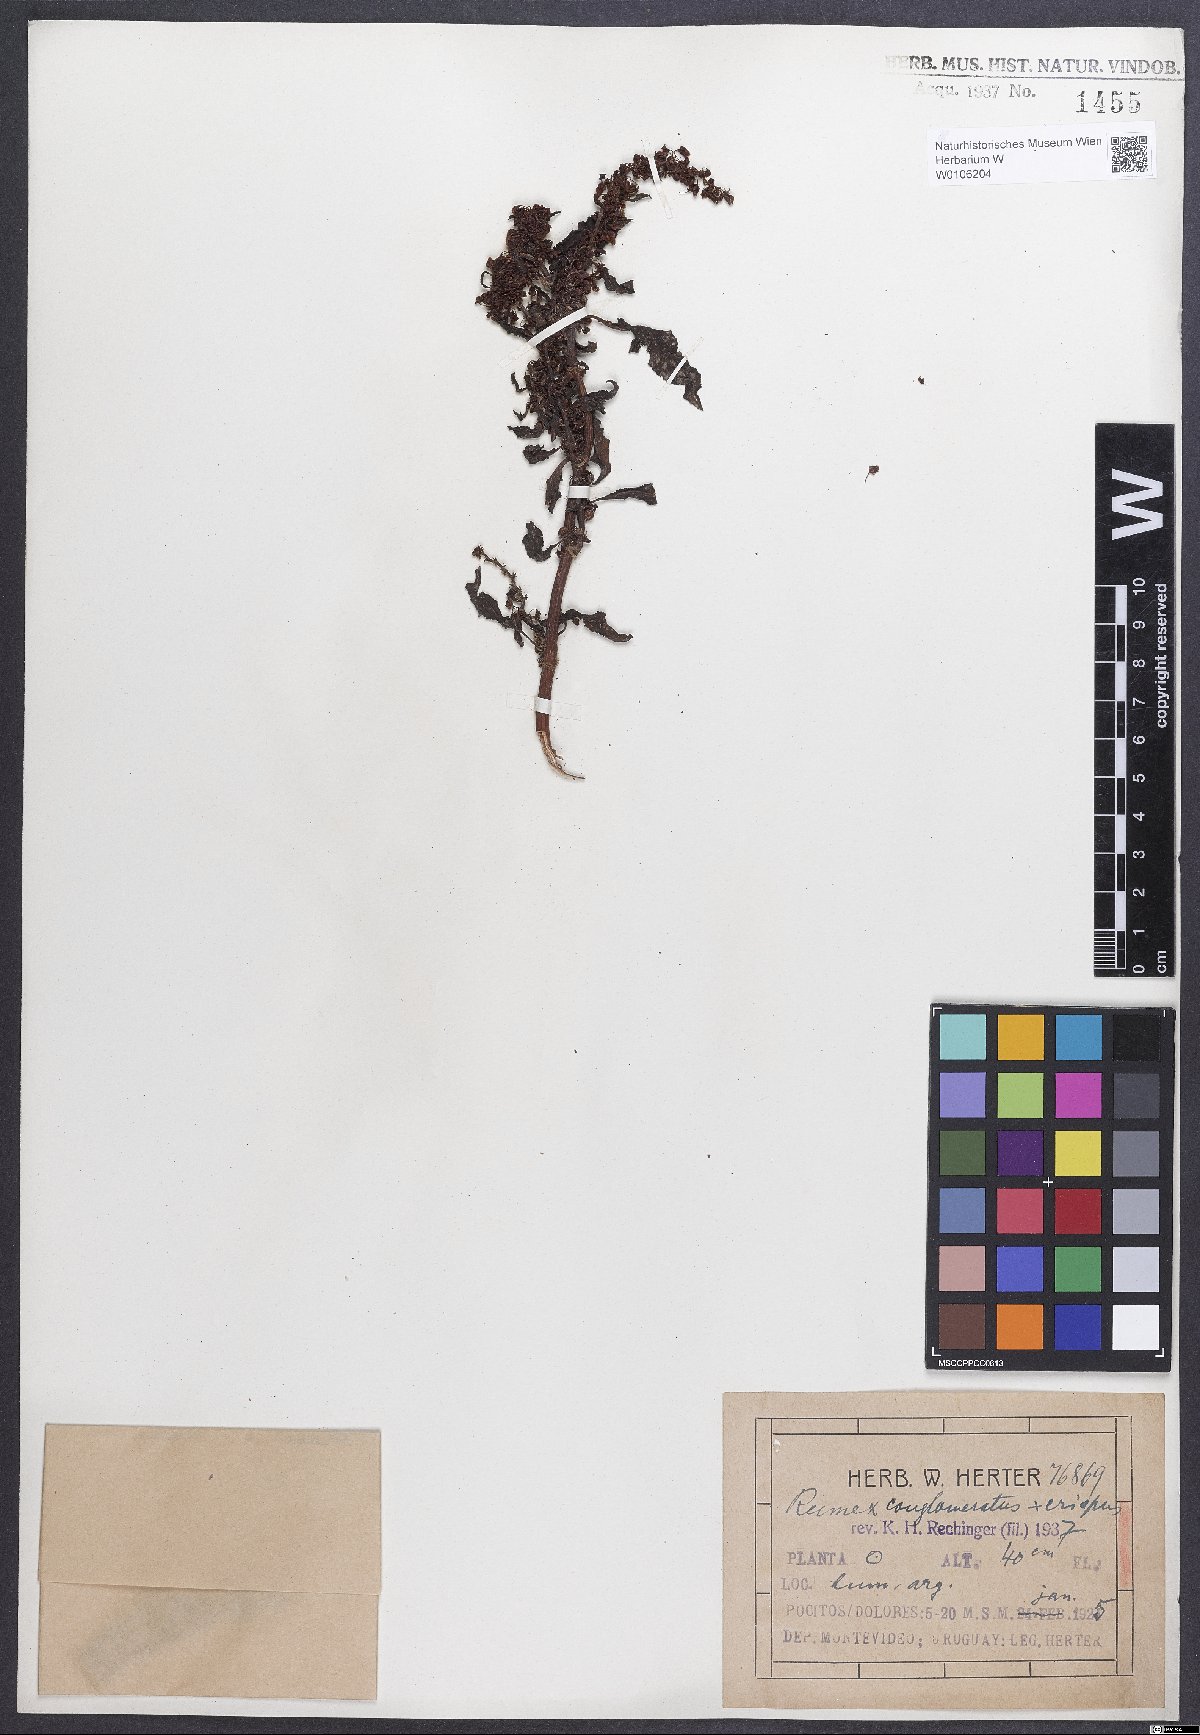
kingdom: Plantae
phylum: Tracheophyta
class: Magnoliopsida
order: Caryophyllales
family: Polygonaceae
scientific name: Polygonaceae
